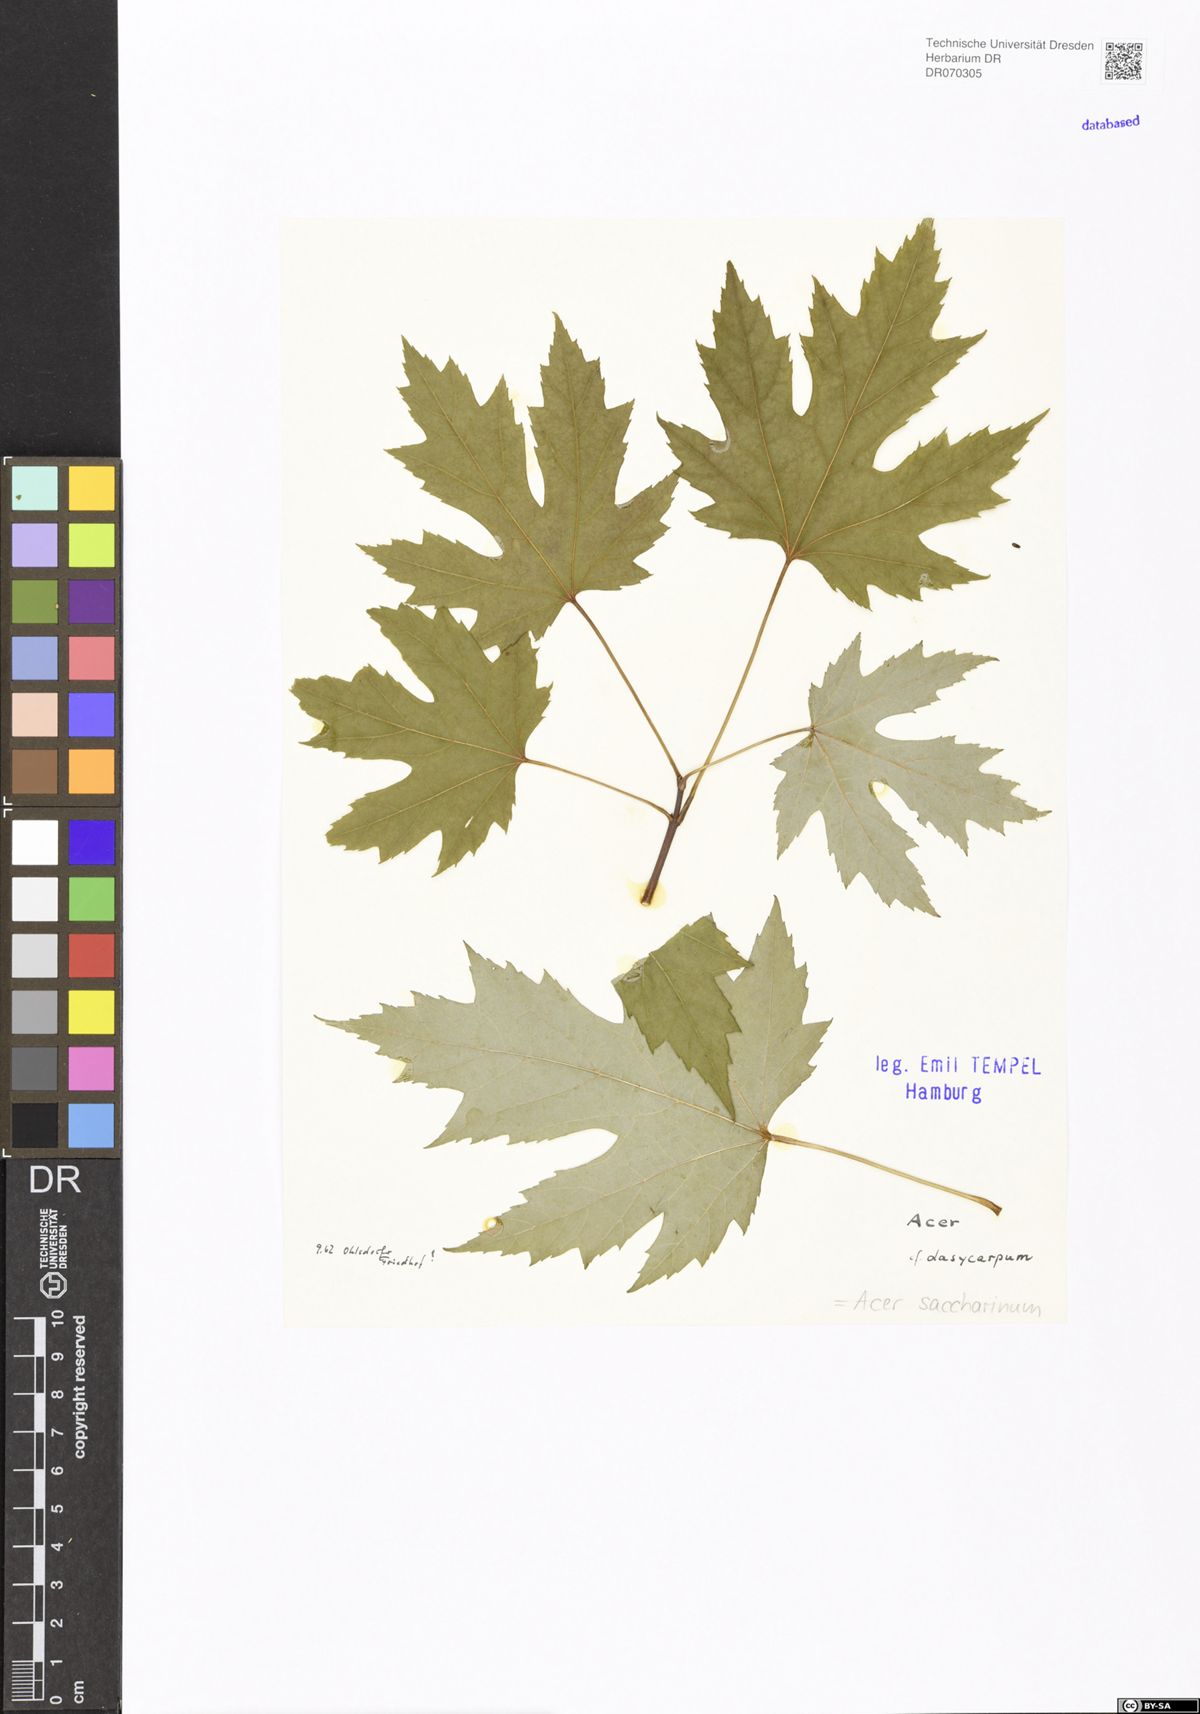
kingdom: Plantae
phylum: Tracheophyta
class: Magnoliopsida
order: Sapindales
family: Sapindaceae
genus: Acer
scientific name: Acer saccharinum
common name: Silver maple
